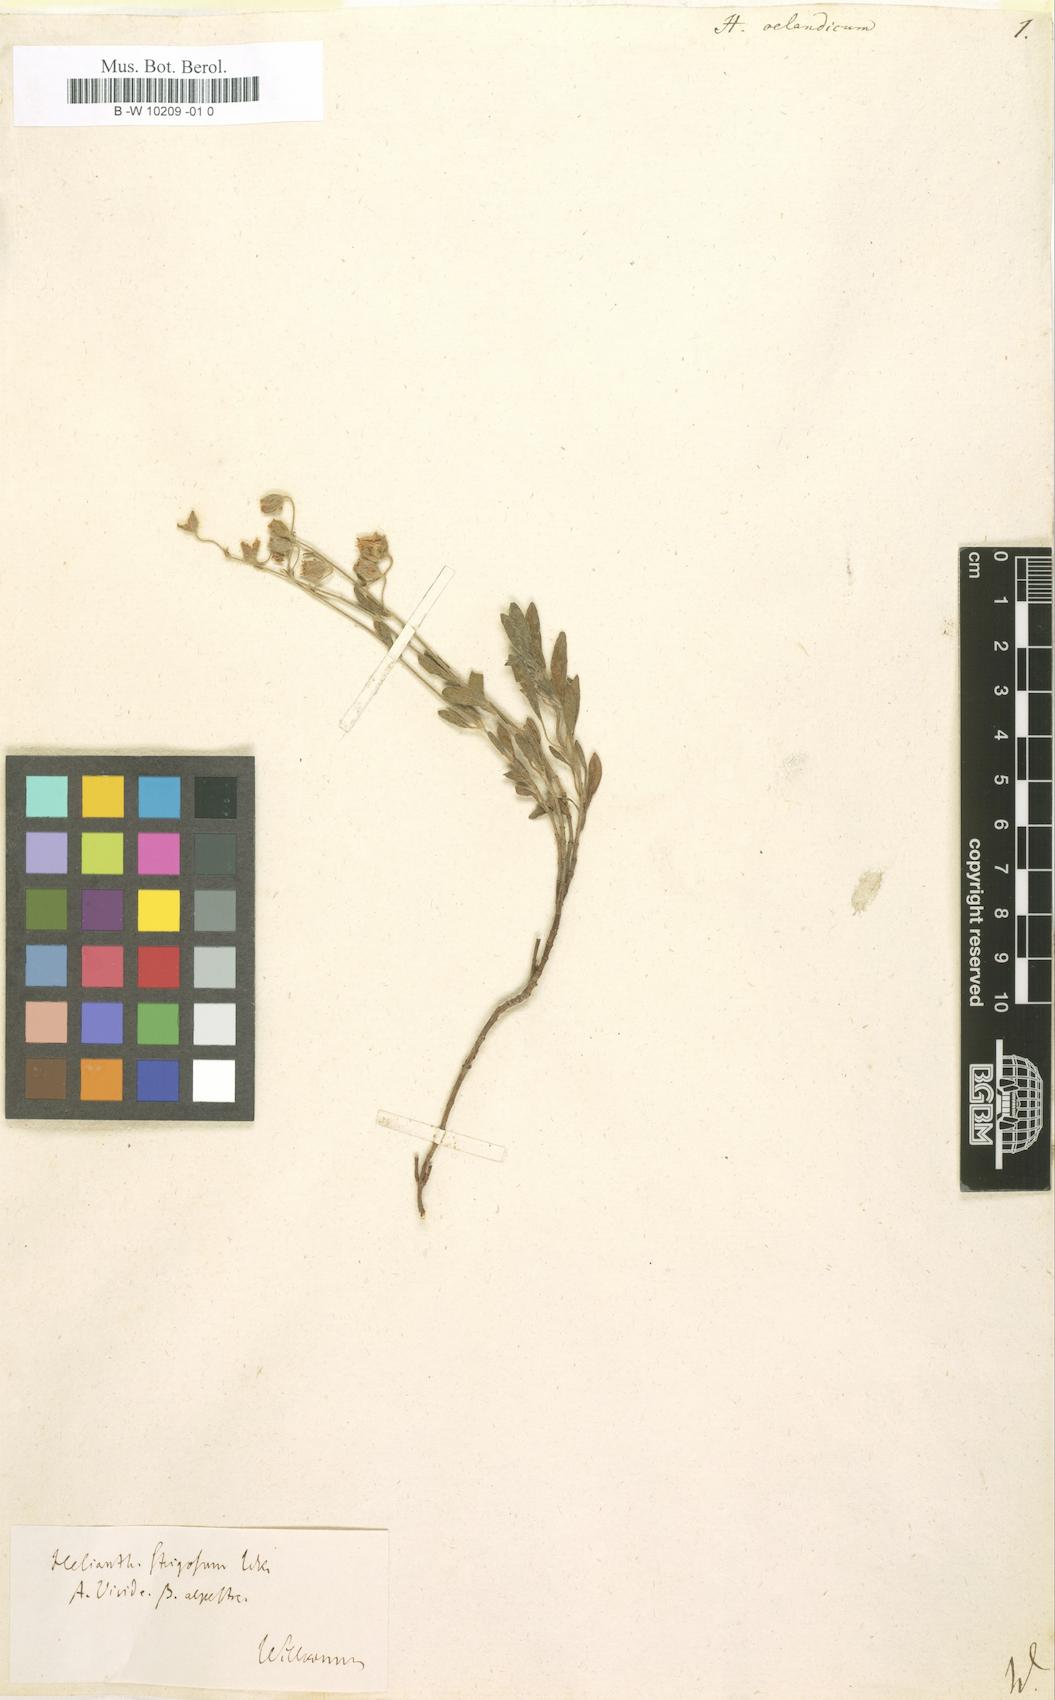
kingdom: Plantae
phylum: Tracheophyta
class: Magnoliopsida
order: Malvales
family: Cistaceae
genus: Helianthemum
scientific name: Helianthemum oelandicum
